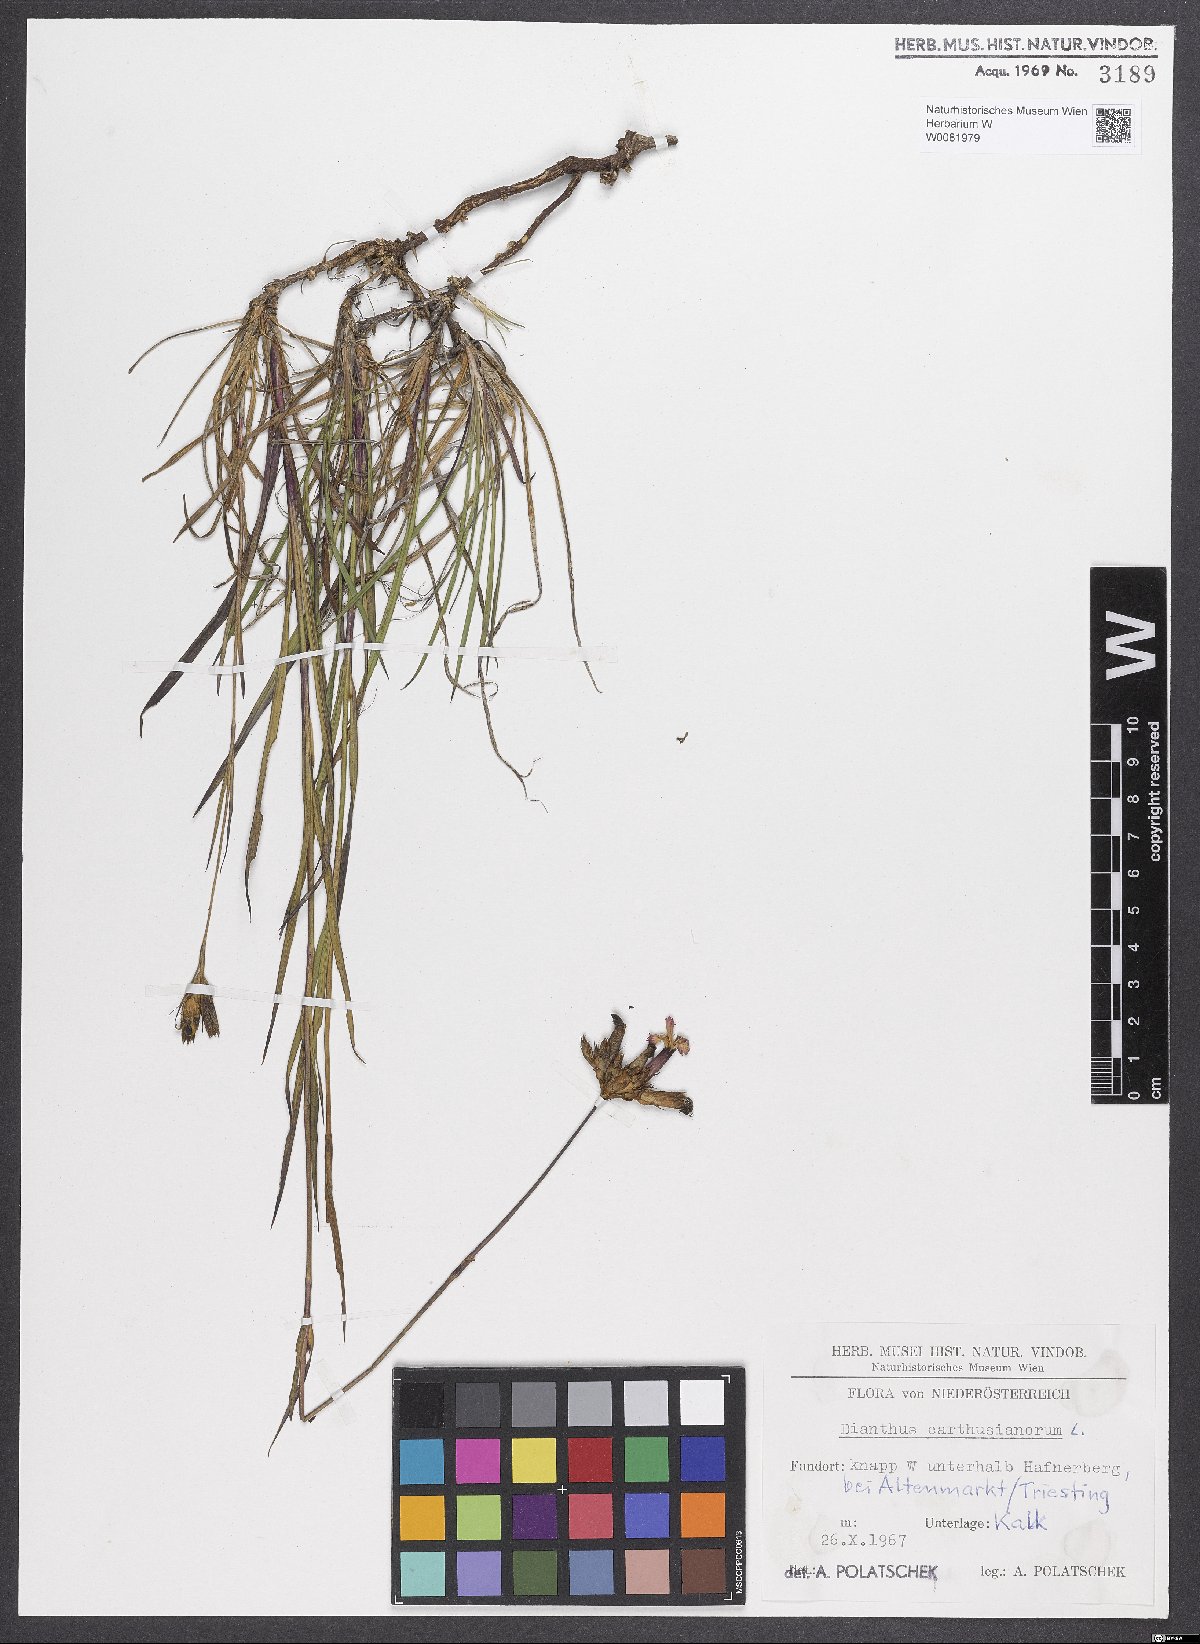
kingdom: Plantae
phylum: Tracheophyta
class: Magnoliopsida
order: Caryophyllales
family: Caryophyllaceae
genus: Dianthus
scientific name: Dianthus carthusianorum
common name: Carthusian pink
